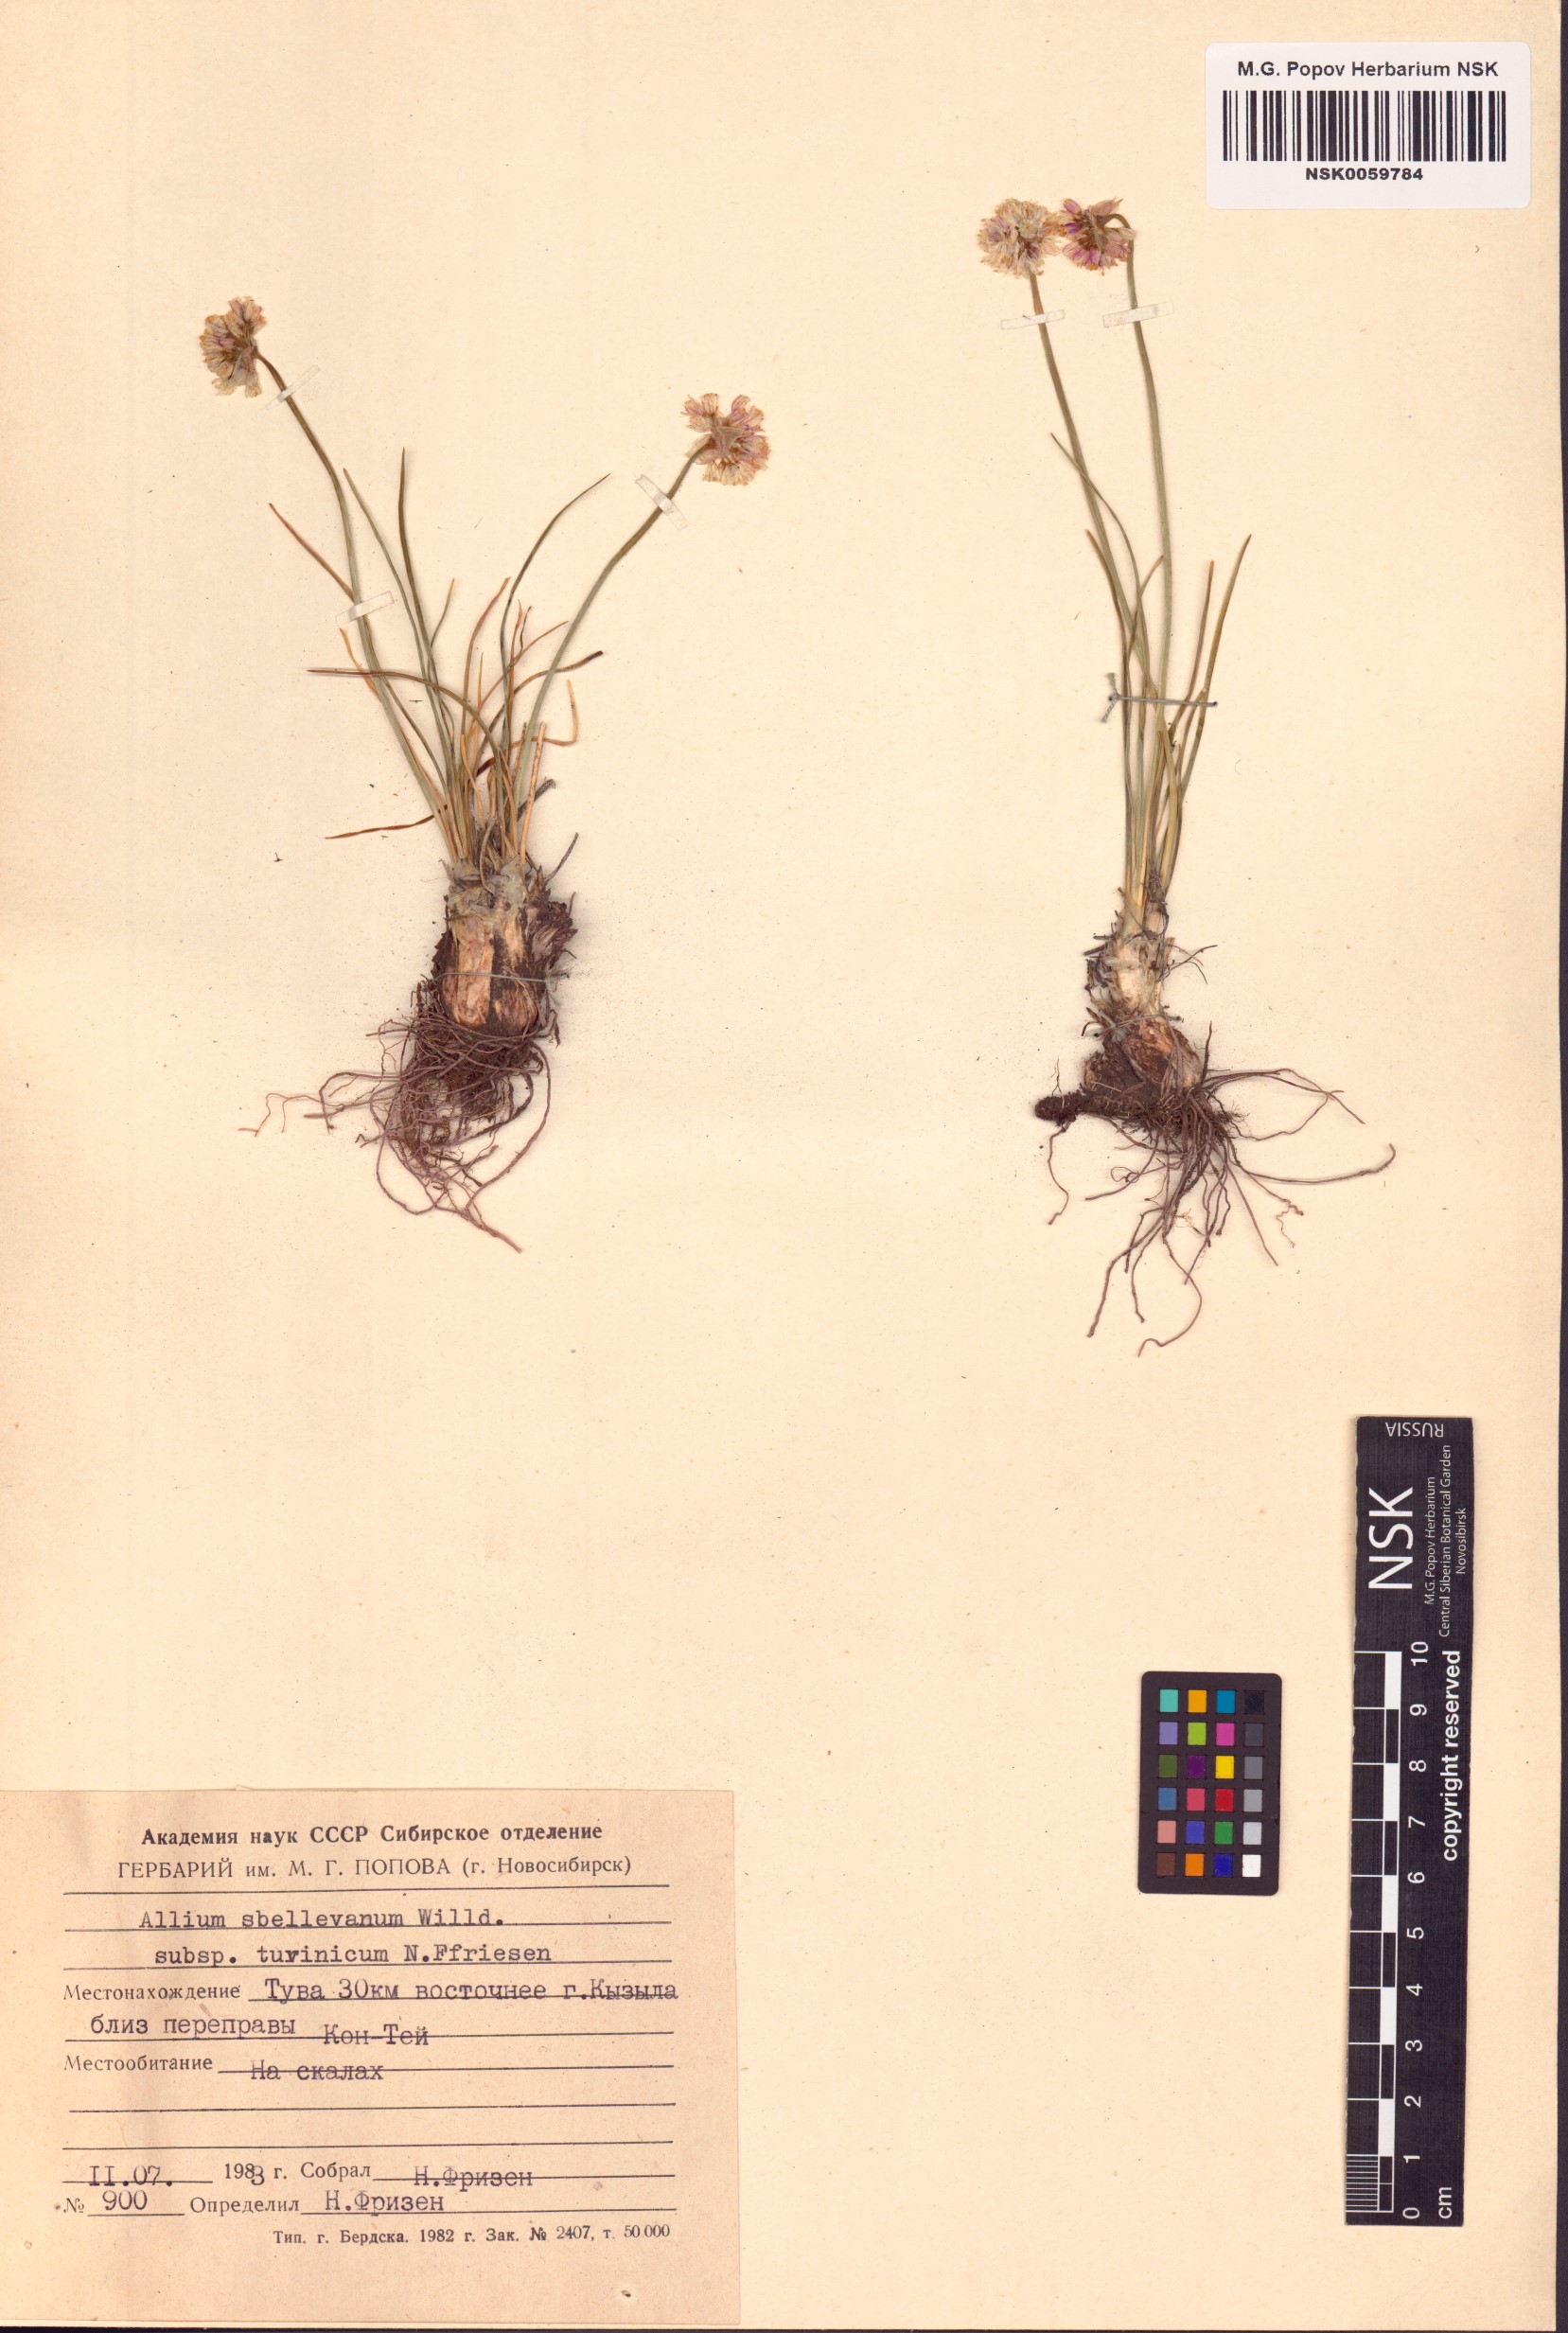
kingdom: Plantae
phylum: Tracheophyta
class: Liliopsida
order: Asparagales
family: Amaryllidaceae
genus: Allium
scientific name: Allium tuvinicum
